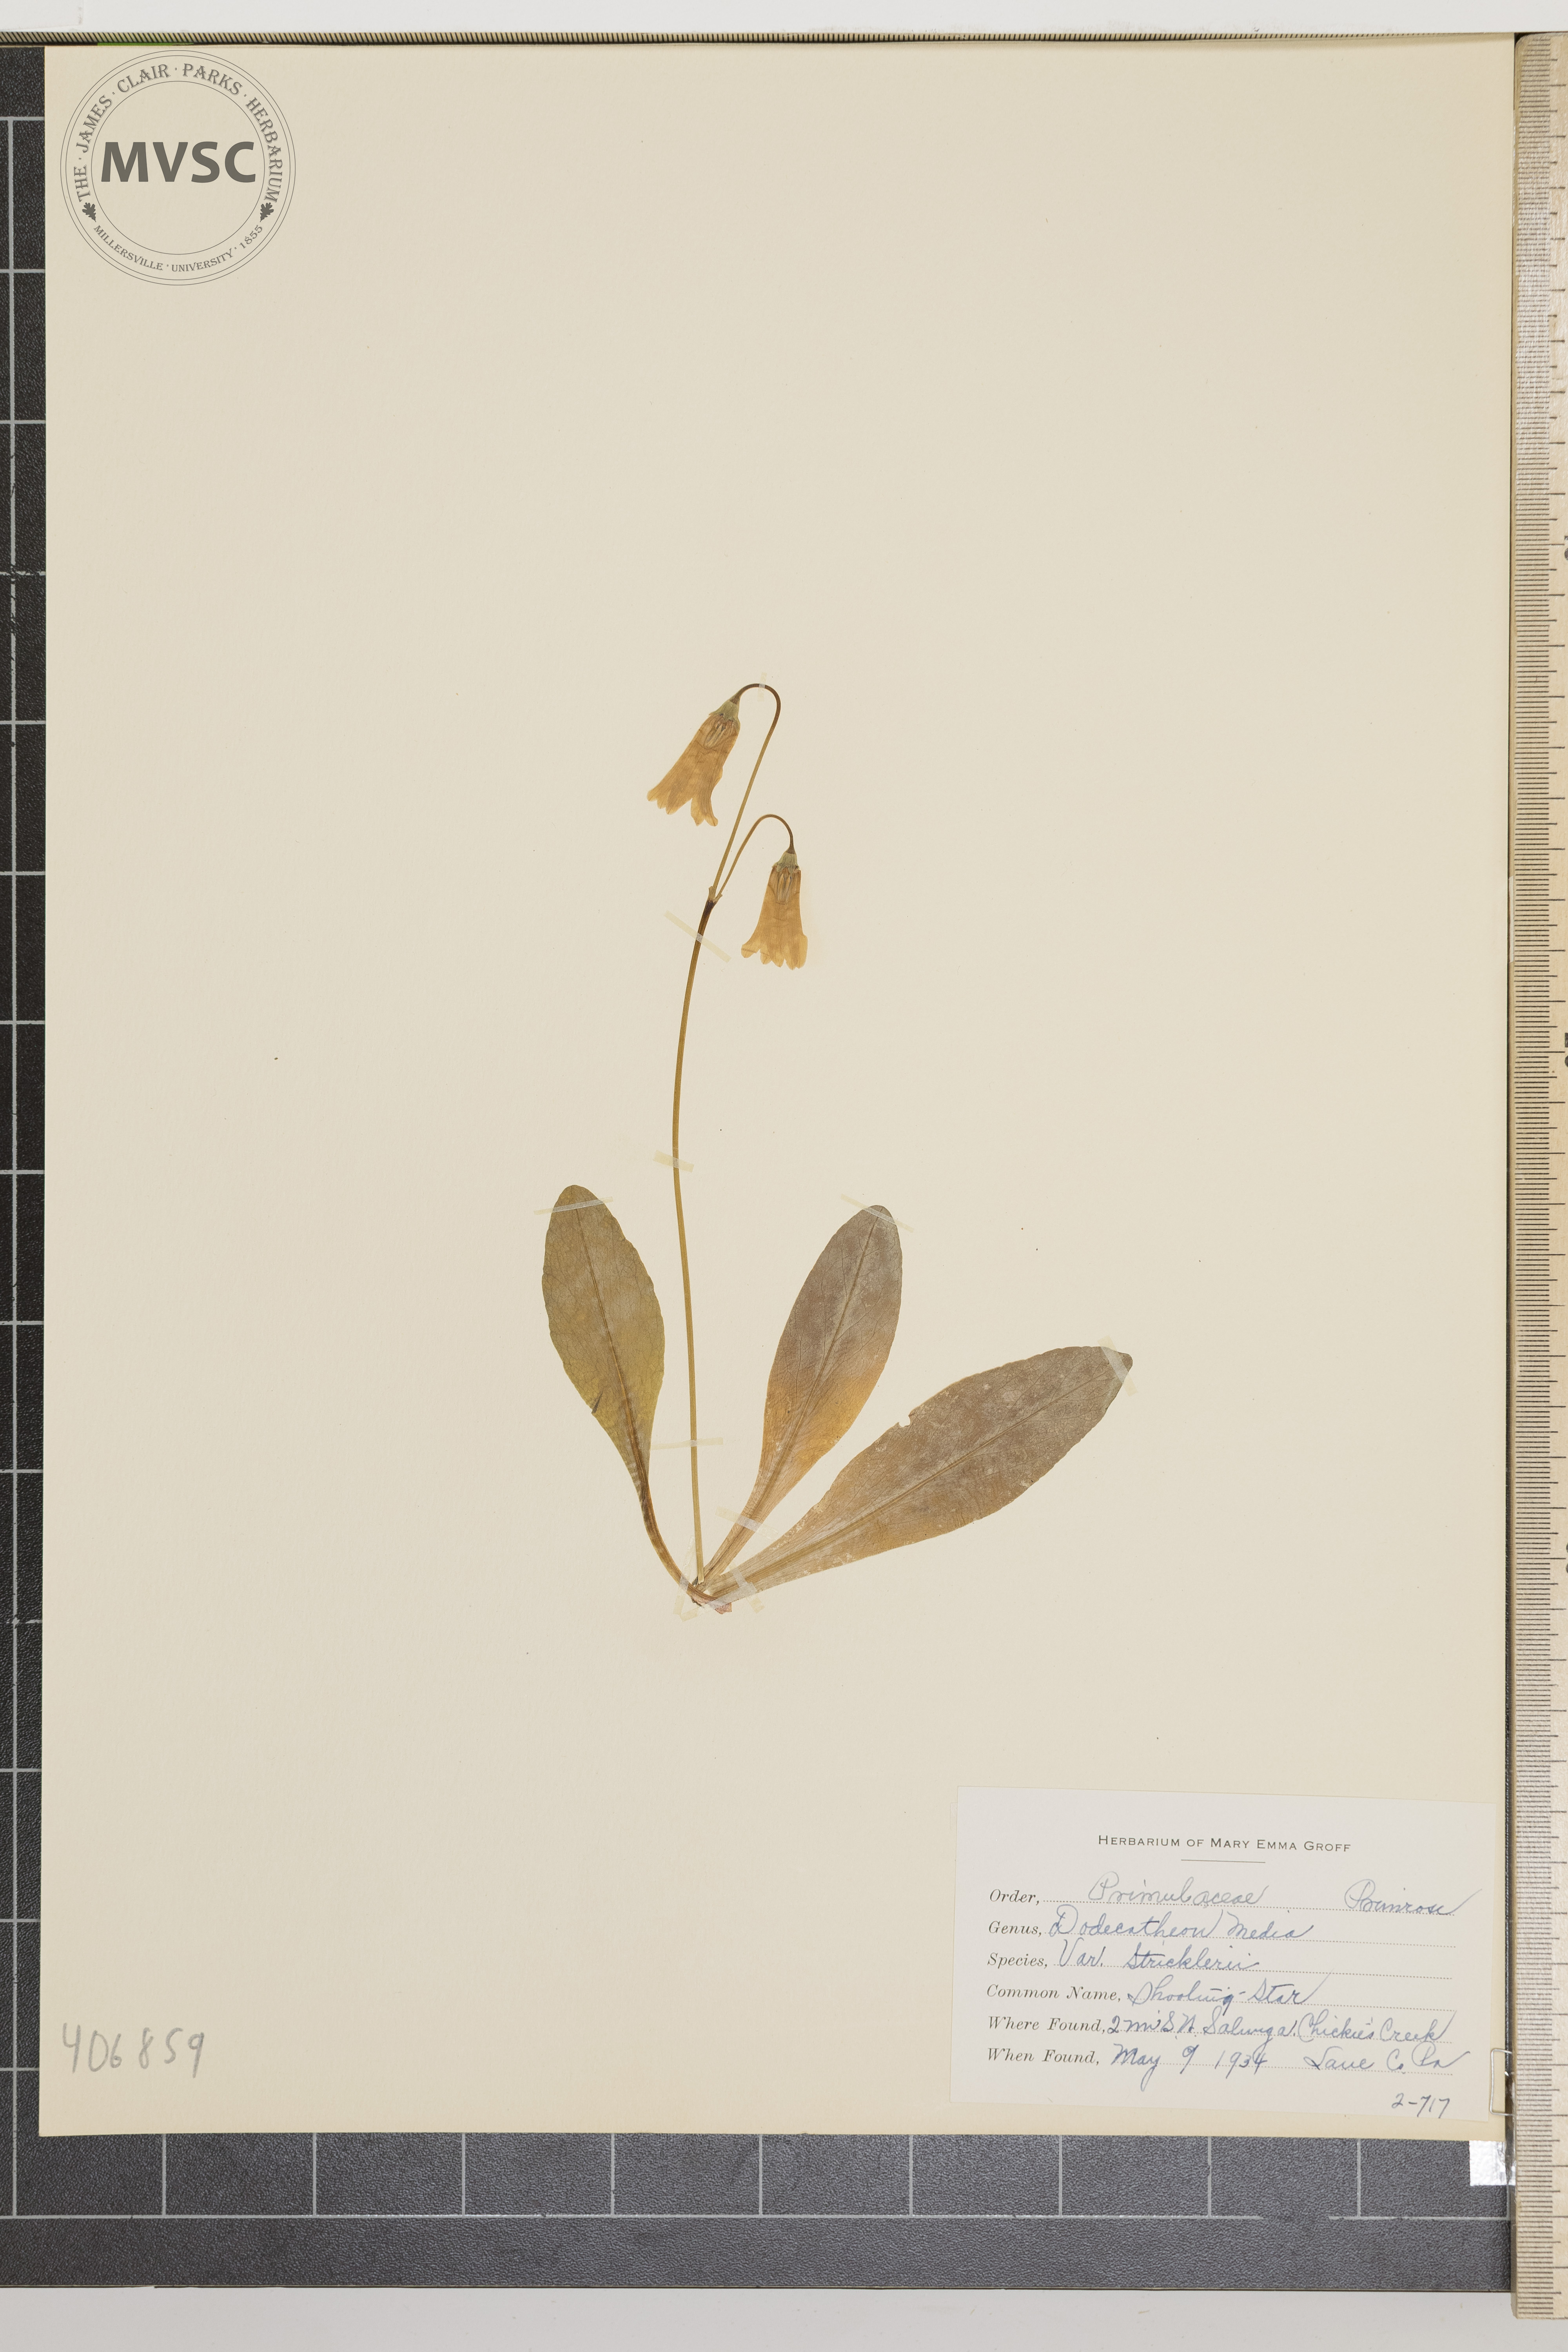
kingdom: Plantae
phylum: Tracheophyta
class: Magnoliopsida
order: Ericales
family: Primulaceae
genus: Dodecatheon
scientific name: Dodecatheon meadia
